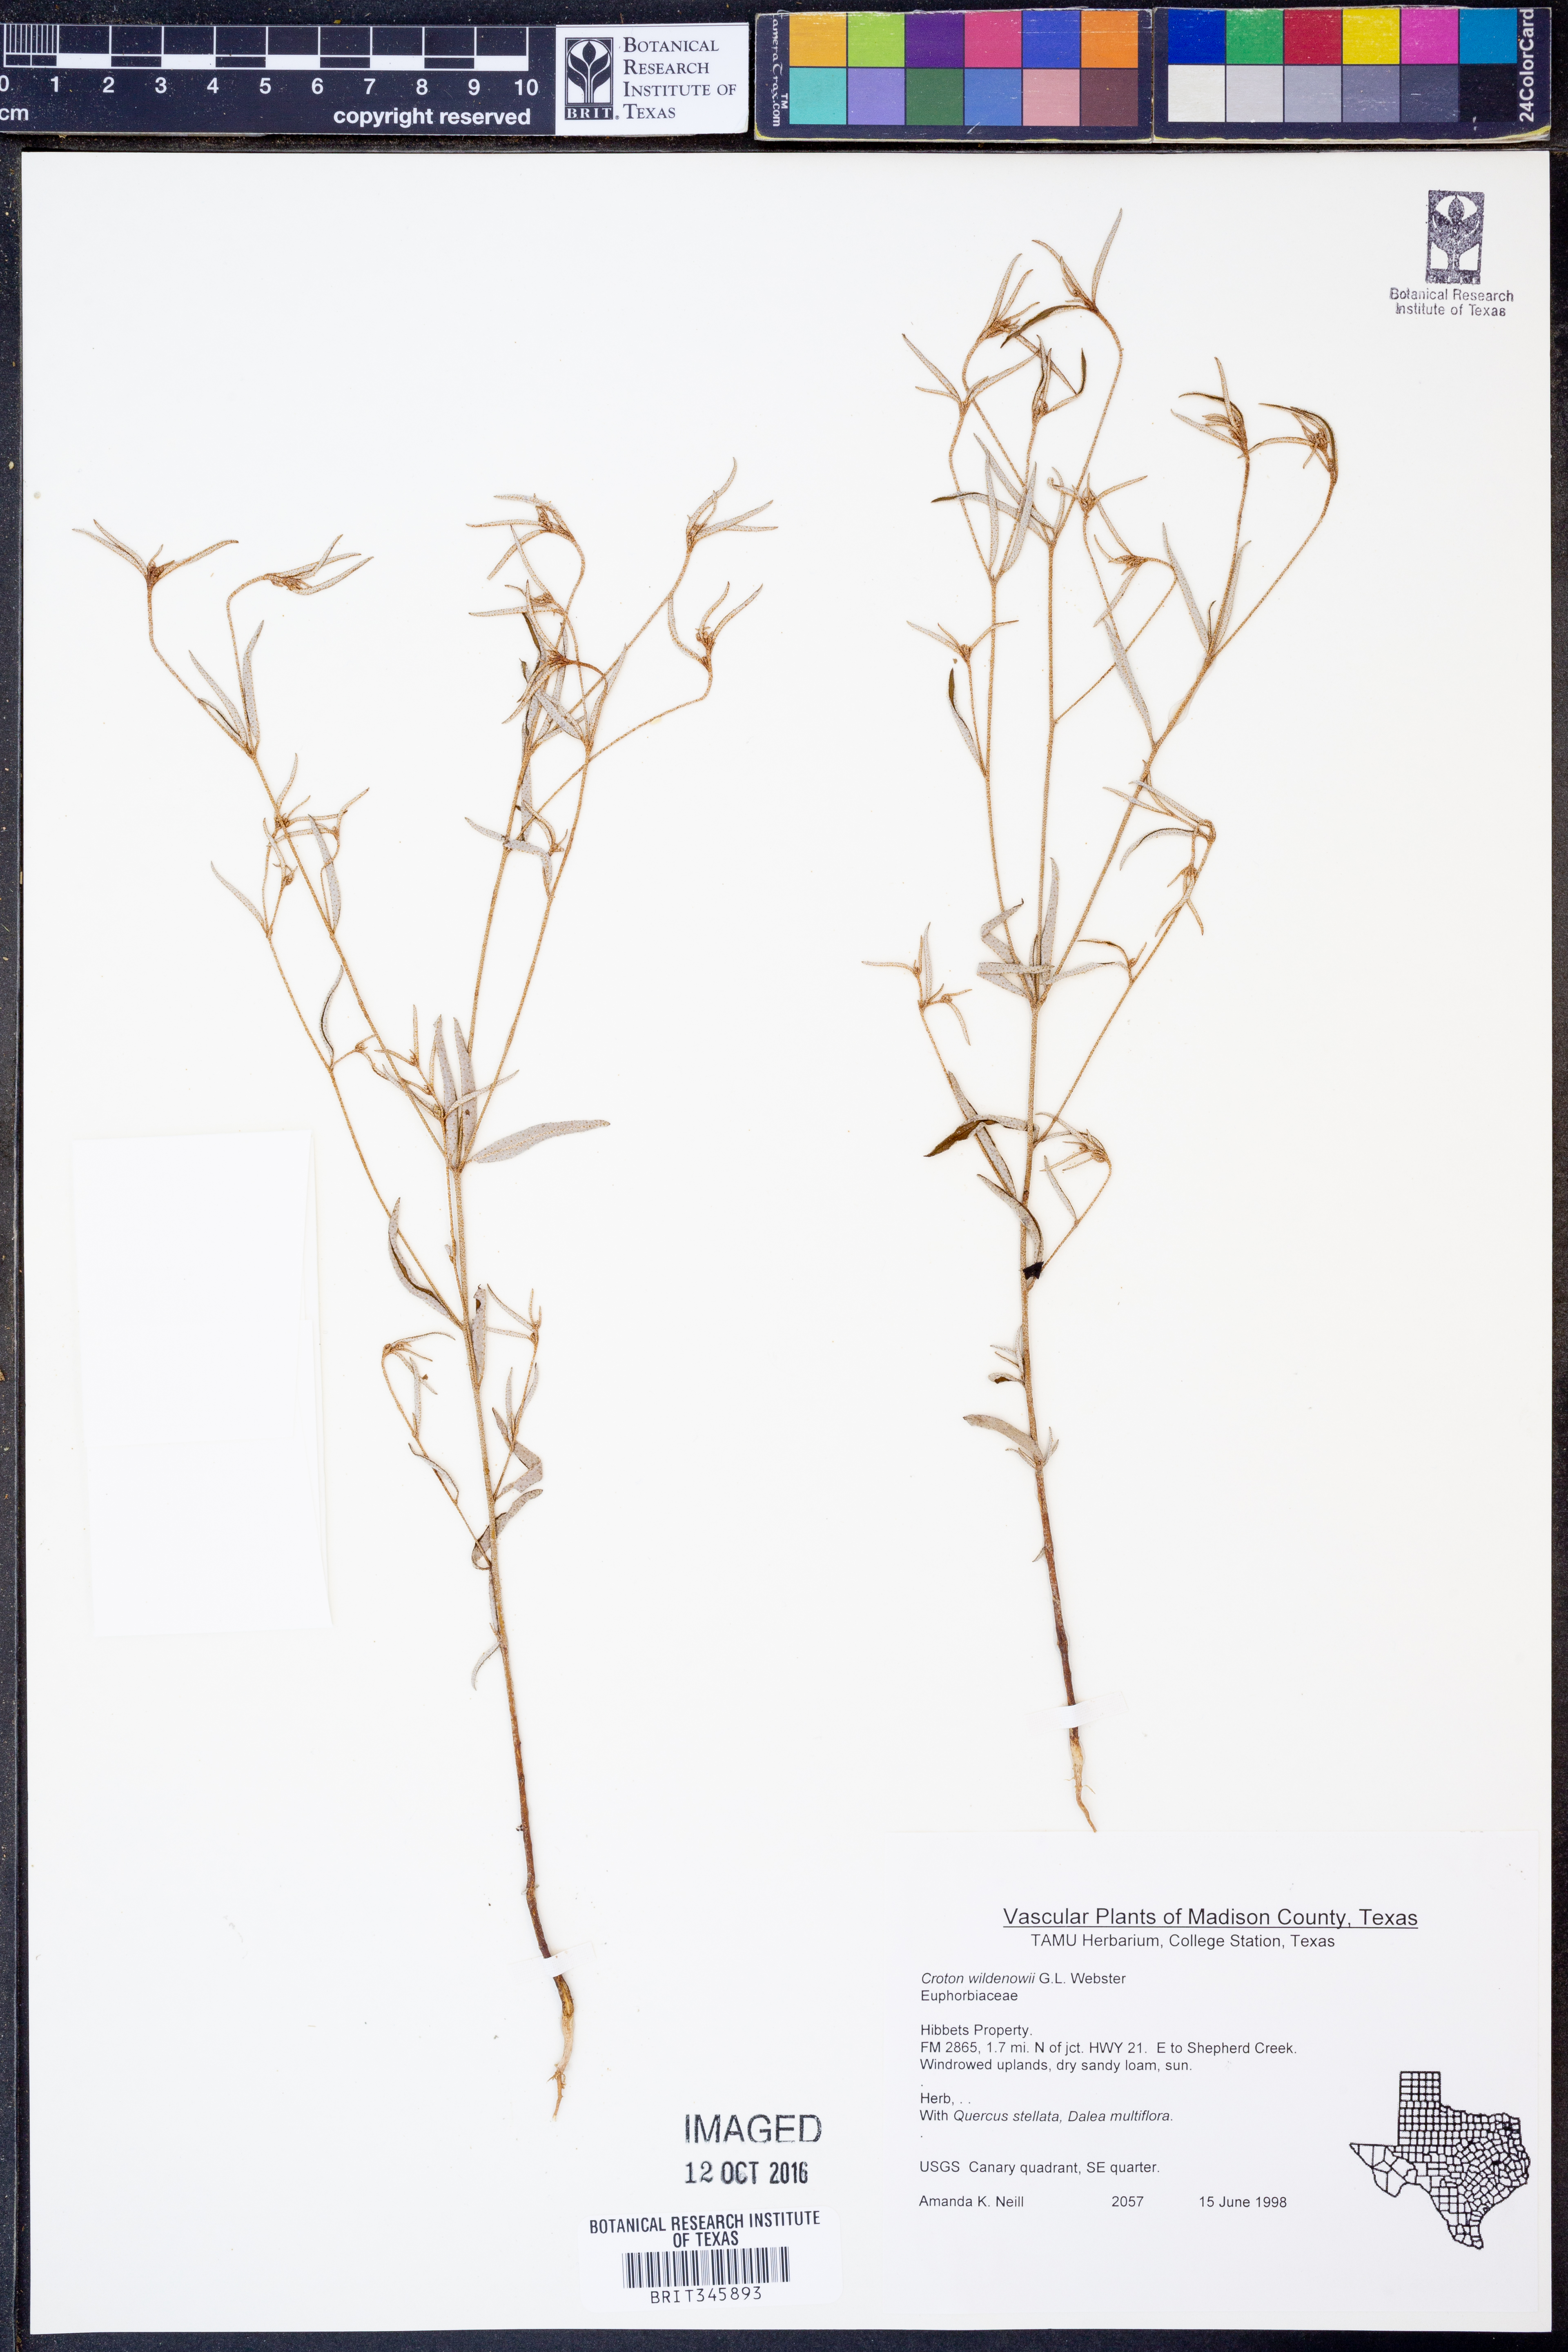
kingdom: Plantae
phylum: Tracheophyta
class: Magnoliopsida
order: Malpighiales
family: Euphorbiaceae
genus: Croton
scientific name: Croton michauxii
